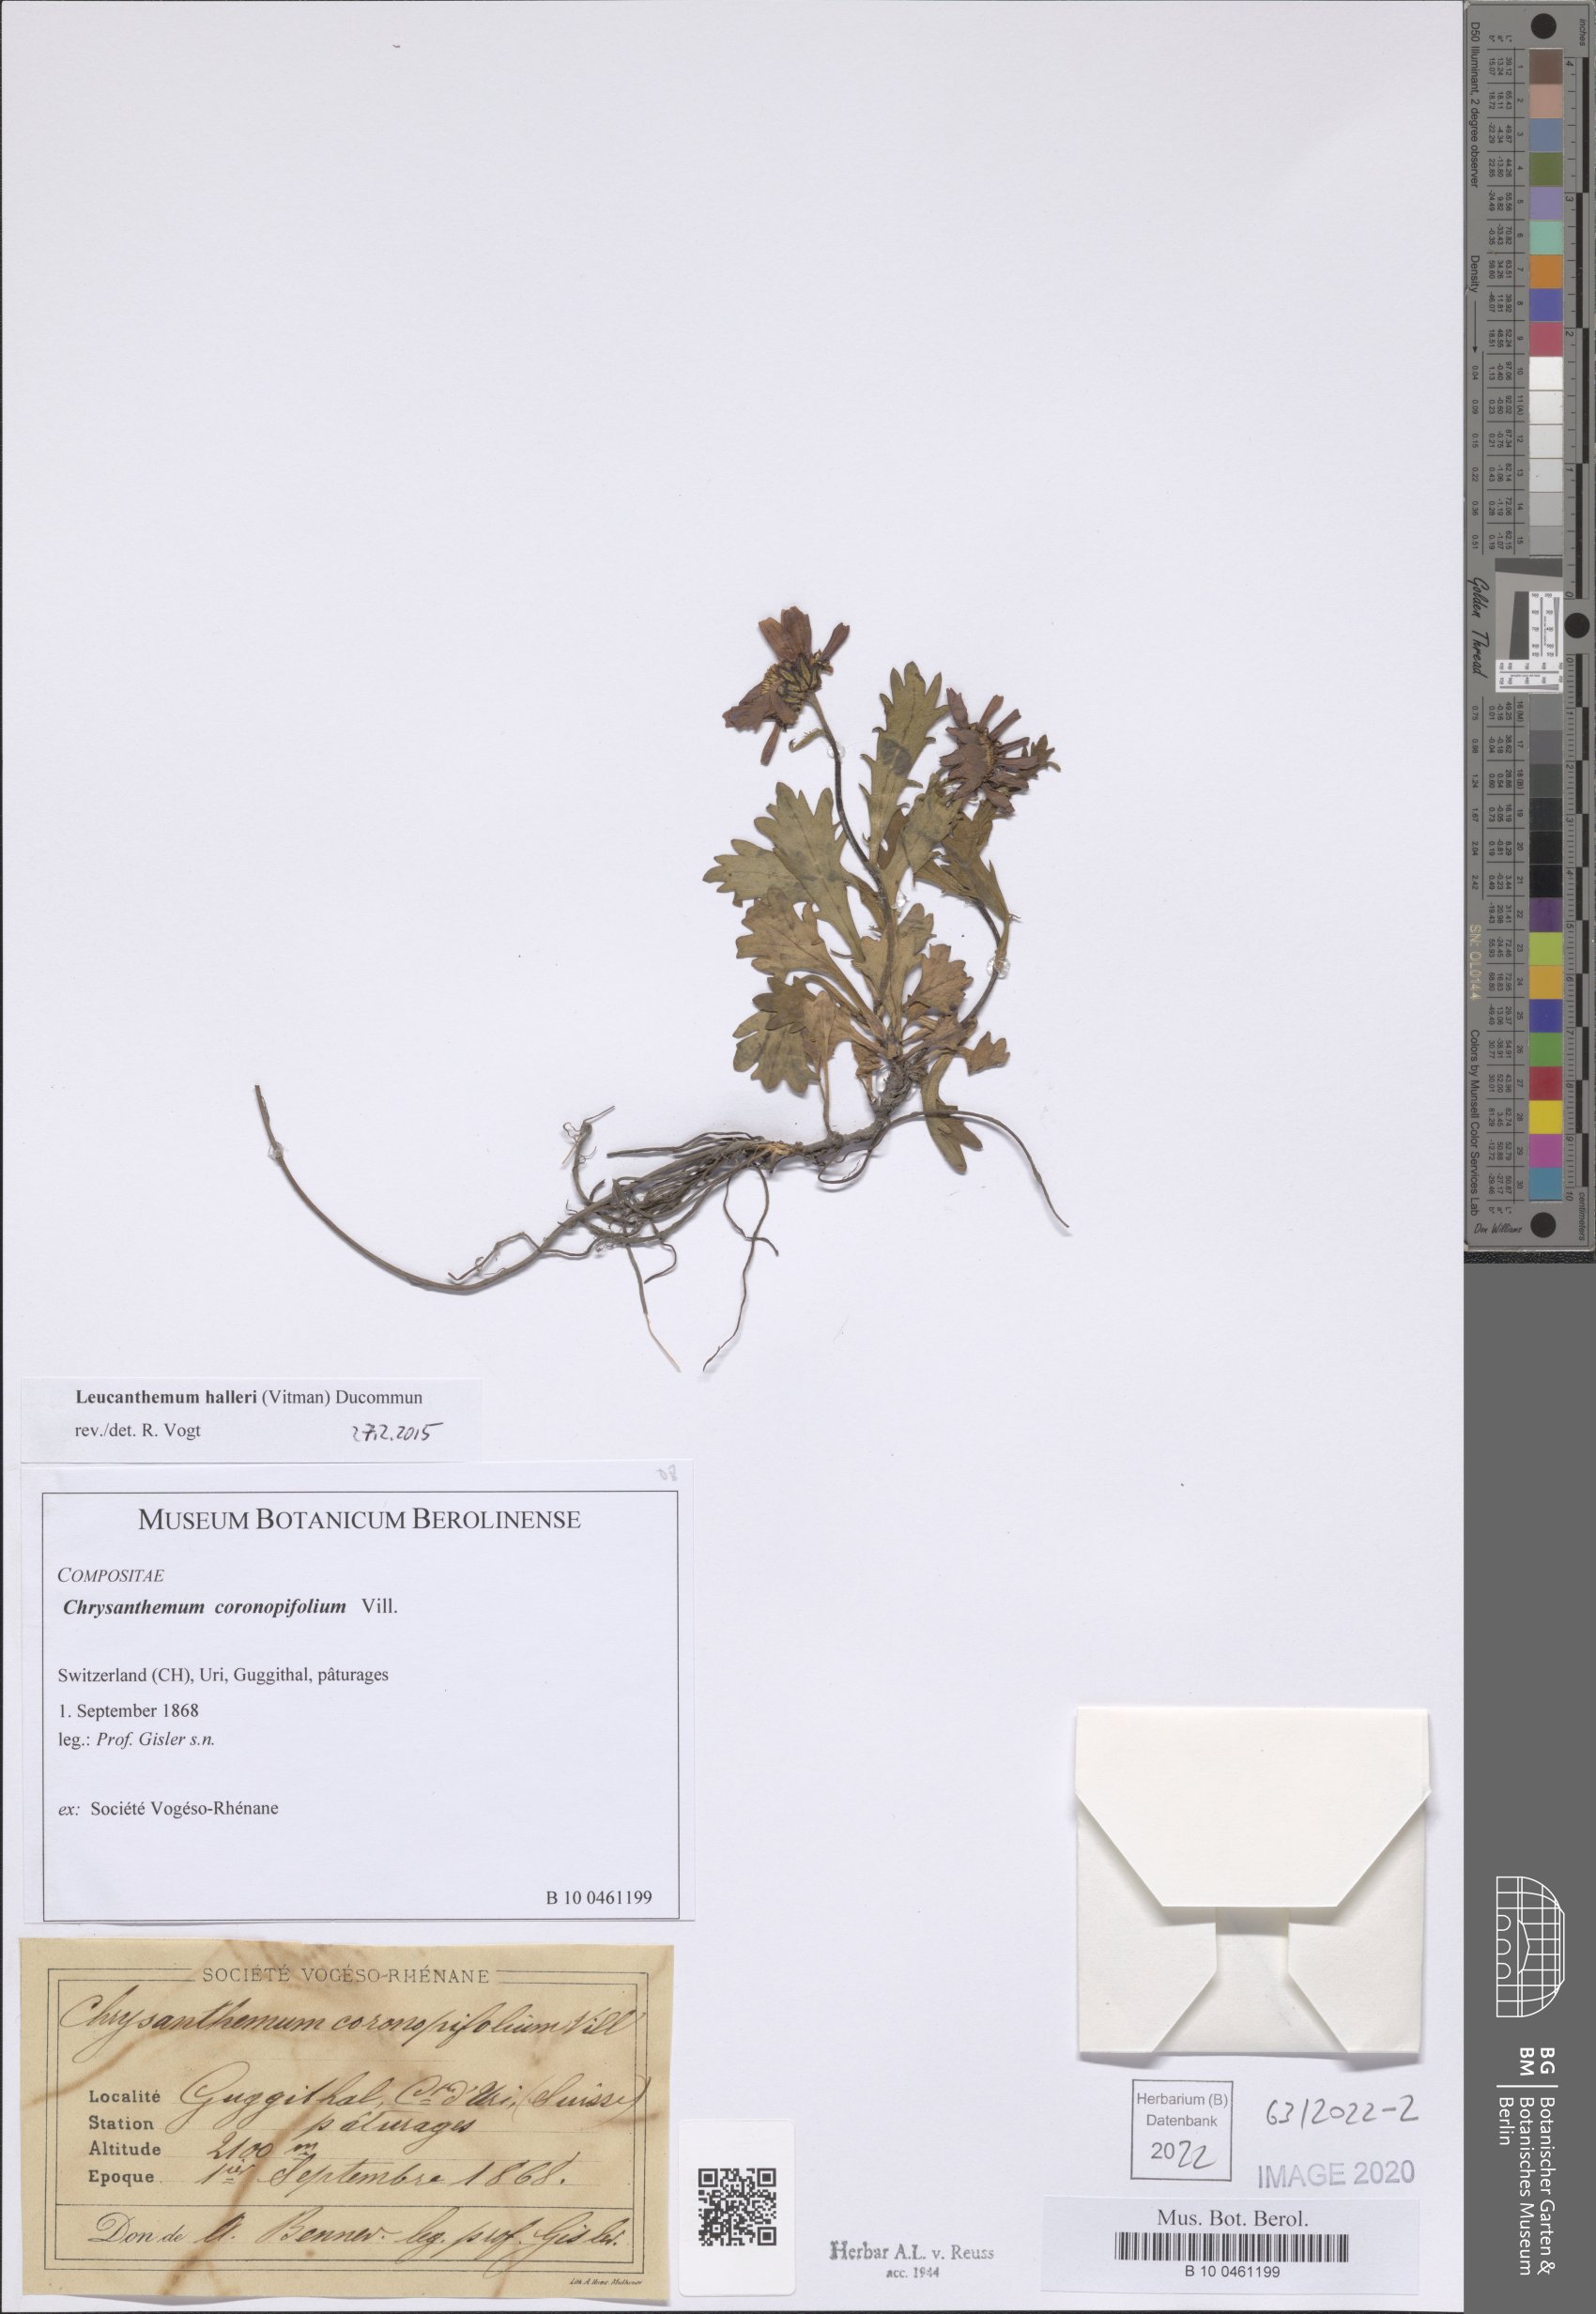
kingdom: Plantae
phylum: Tracheophyta
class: Magnoliopsida
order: Asterales
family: Asteraceae
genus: Leucanthemum
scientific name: Leucanthemum halleri
